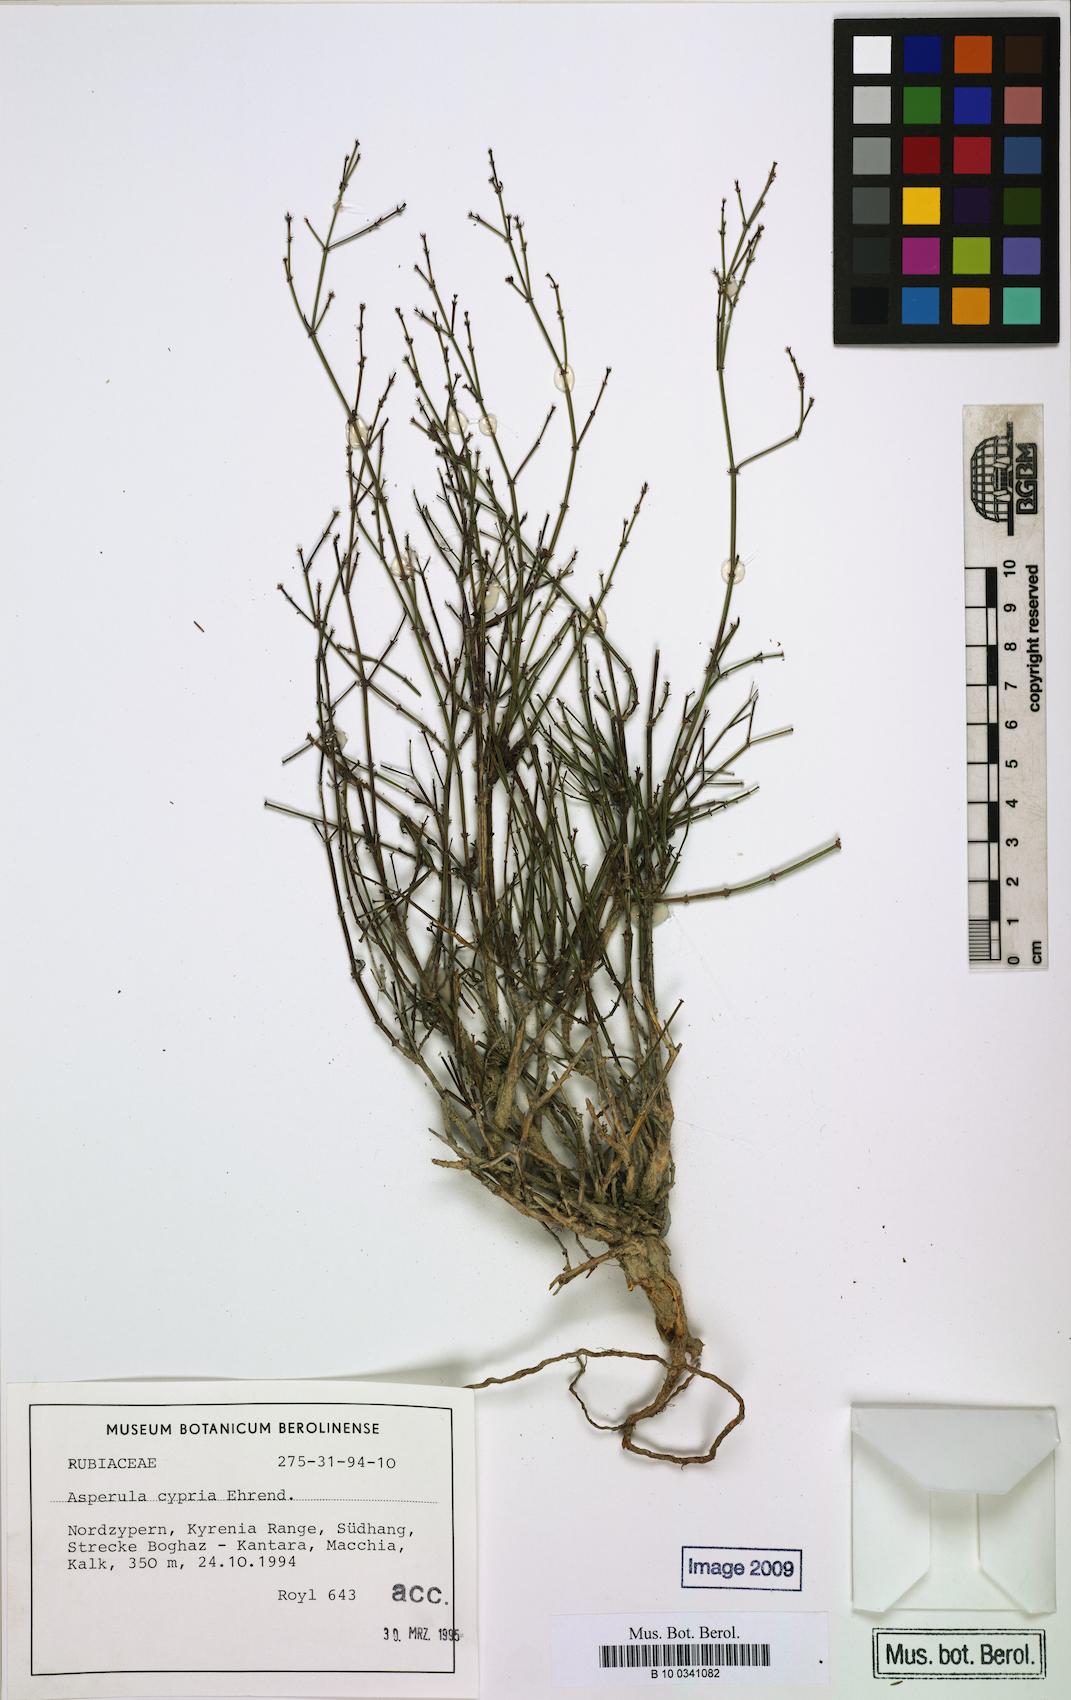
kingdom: Plantae
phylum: Tracheophyta
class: Magnoliopsida
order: Gentianales
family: Rubiaceae
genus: Thliphthisa
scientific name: Thliphthisa suberosa
